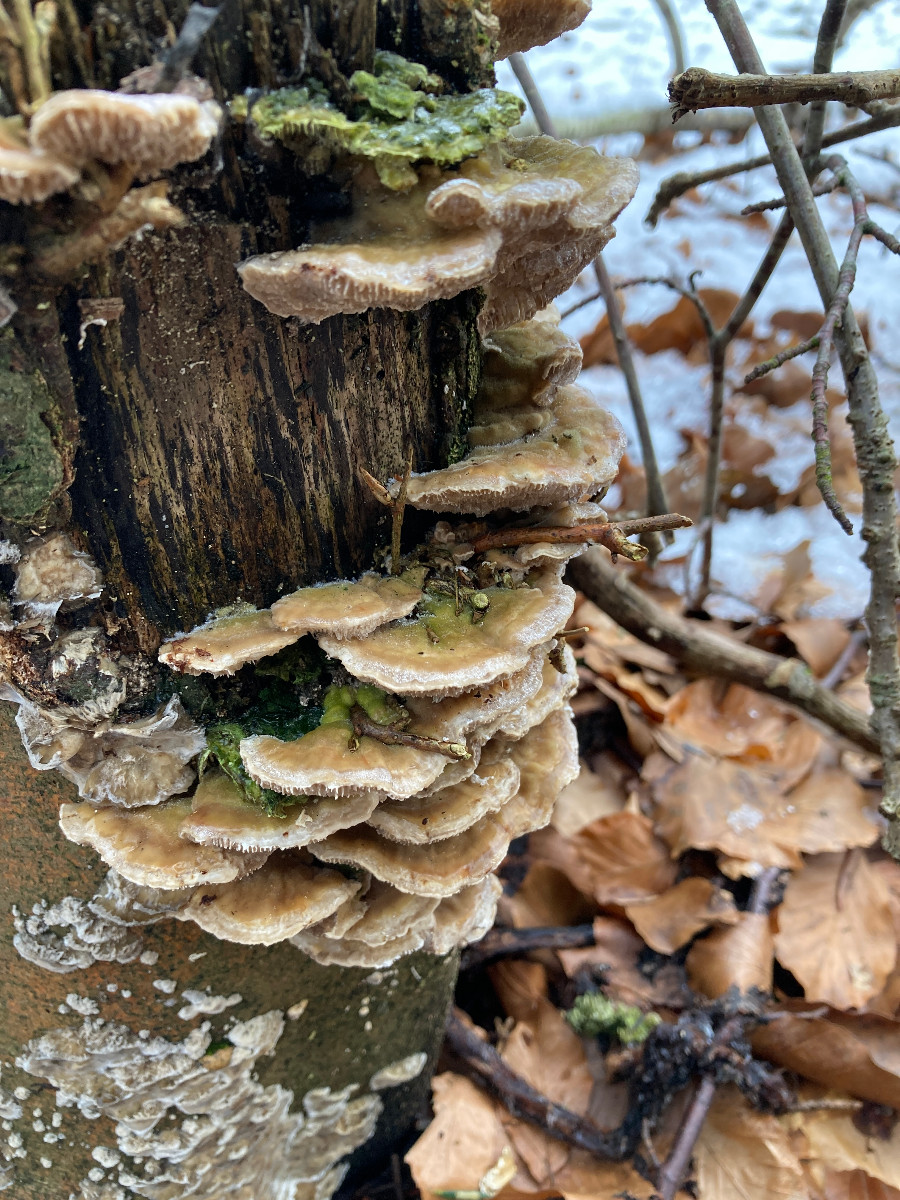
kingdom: Fungi
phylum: Basidiomycota
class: Agaricomycetes
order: Polyporales
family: Polyporaceae
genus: Lenzites
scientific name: Lenzites betulinus
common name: birke-læderporesvamp
